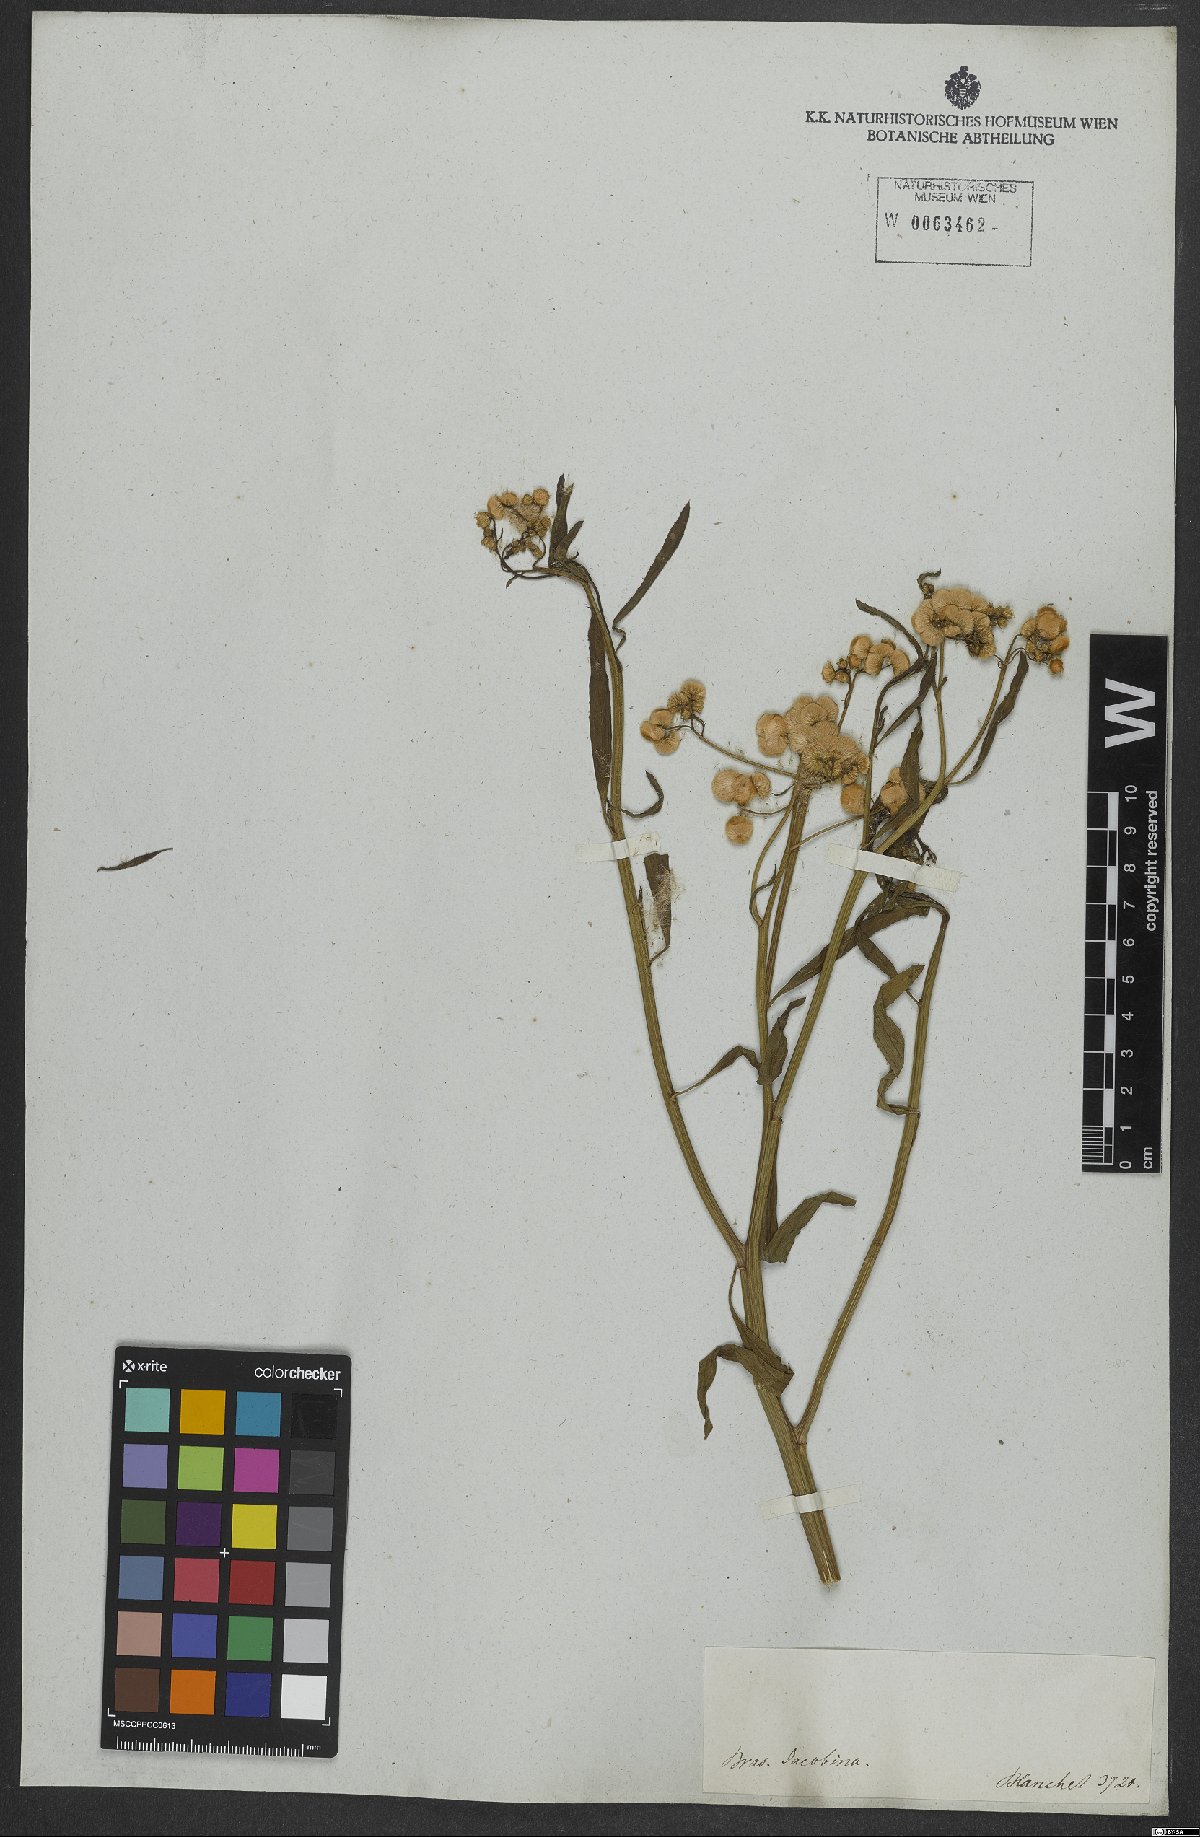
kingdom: Plantae
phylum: Tracheophyta
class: Magnoliopsida
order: Asterales
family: Asteraceae
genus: Pluchea
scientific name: Pluchea sagittalis
